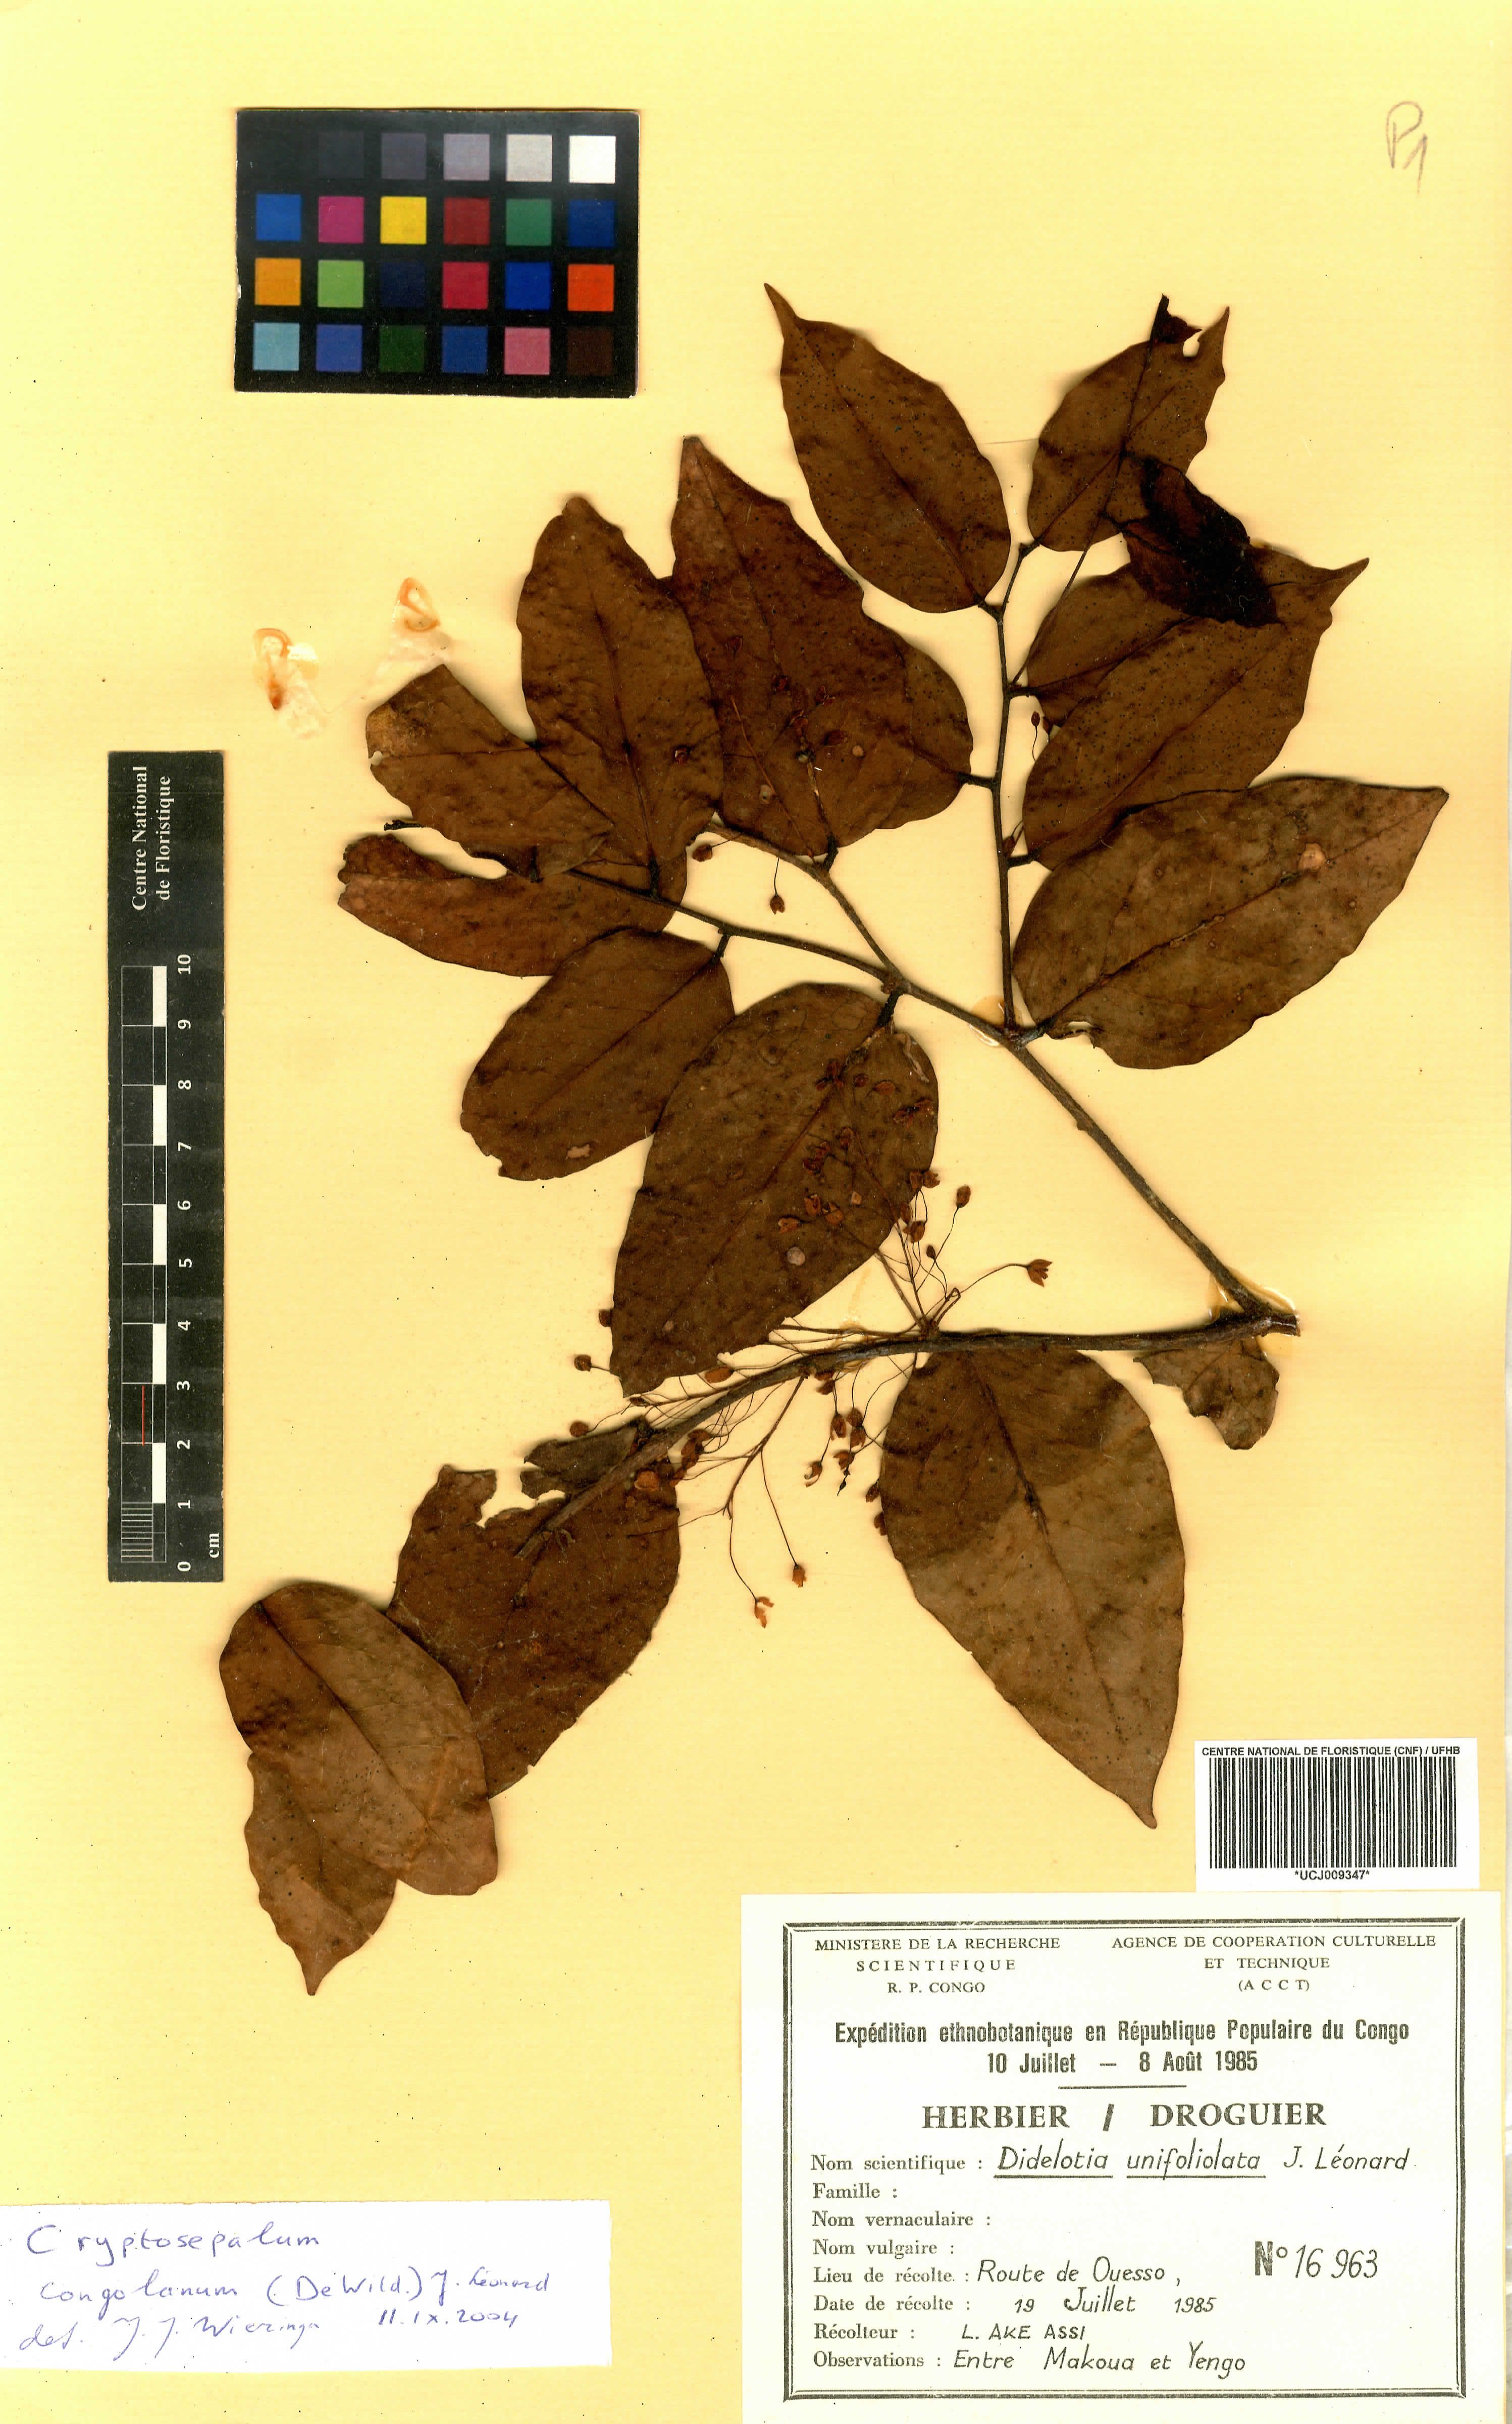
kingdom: Plantae
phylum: Tracheophyta
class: Magnoliopsida
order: Fabales
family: Fabaceae
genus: Didelotia
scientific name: Didelotia brevipaniculata
